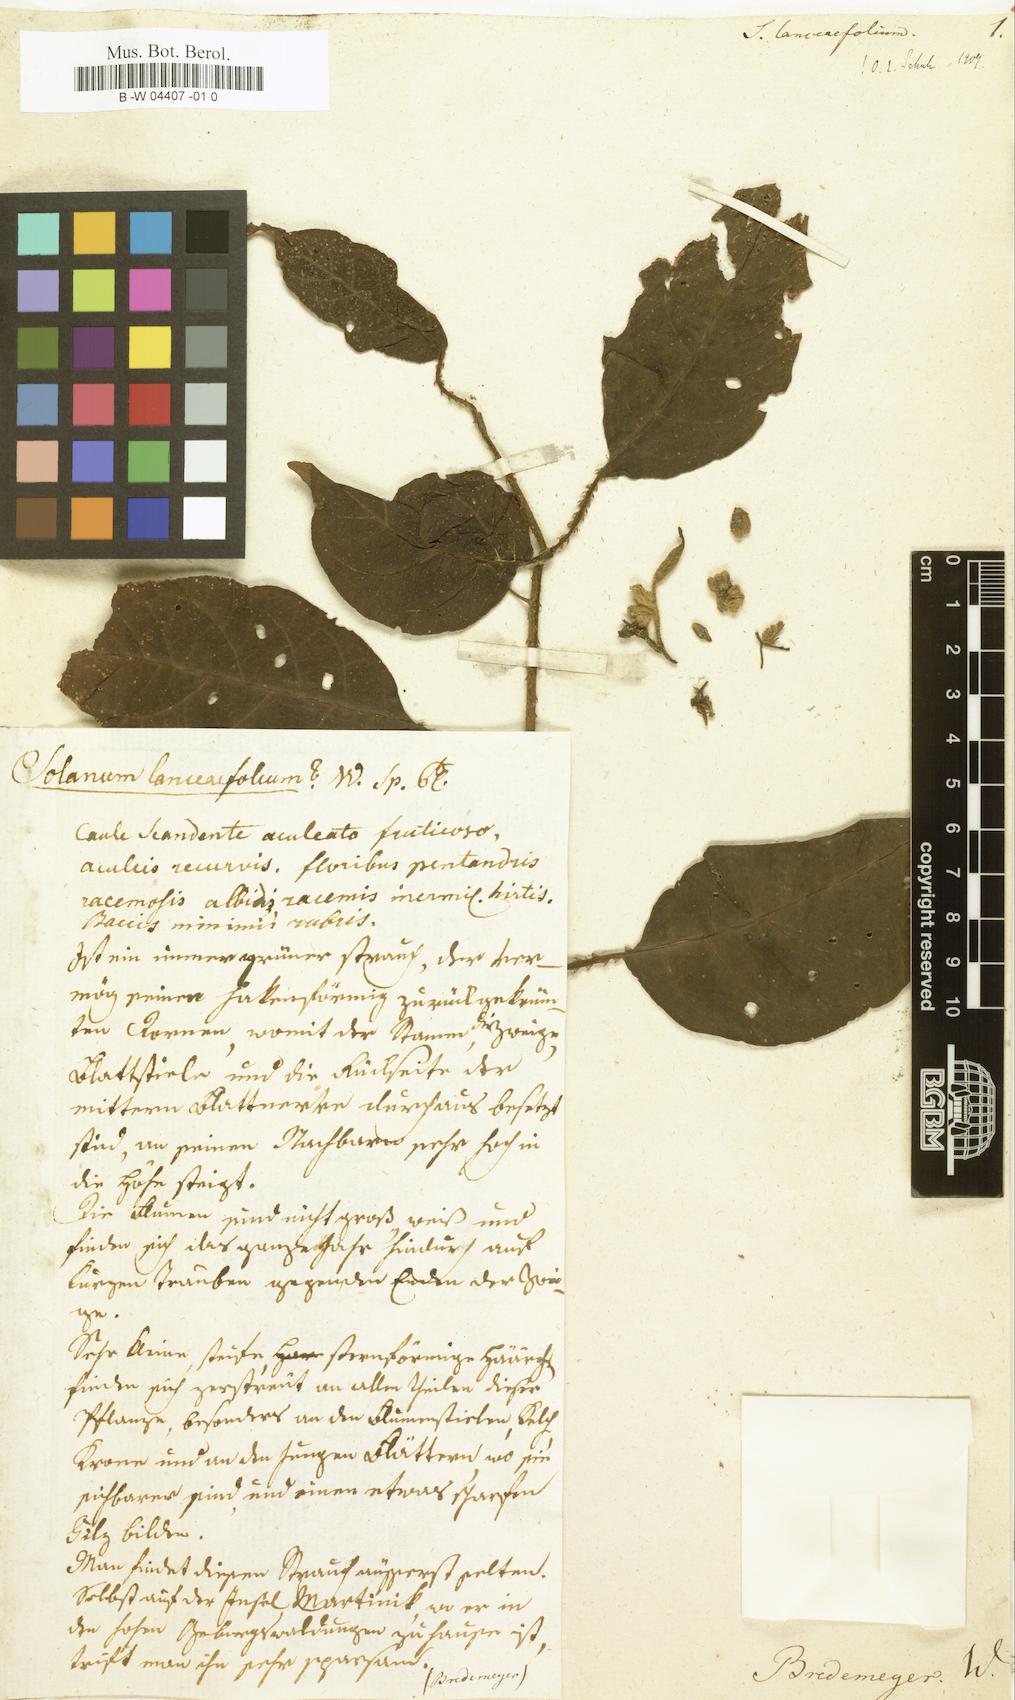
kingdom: Plantae
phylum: Tracheophyta
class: Magnoliopsida
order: Solanales
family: Solanaceae
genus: Solanum
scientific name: Solanum lanceifolium
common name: Lanceleaf nightshade
